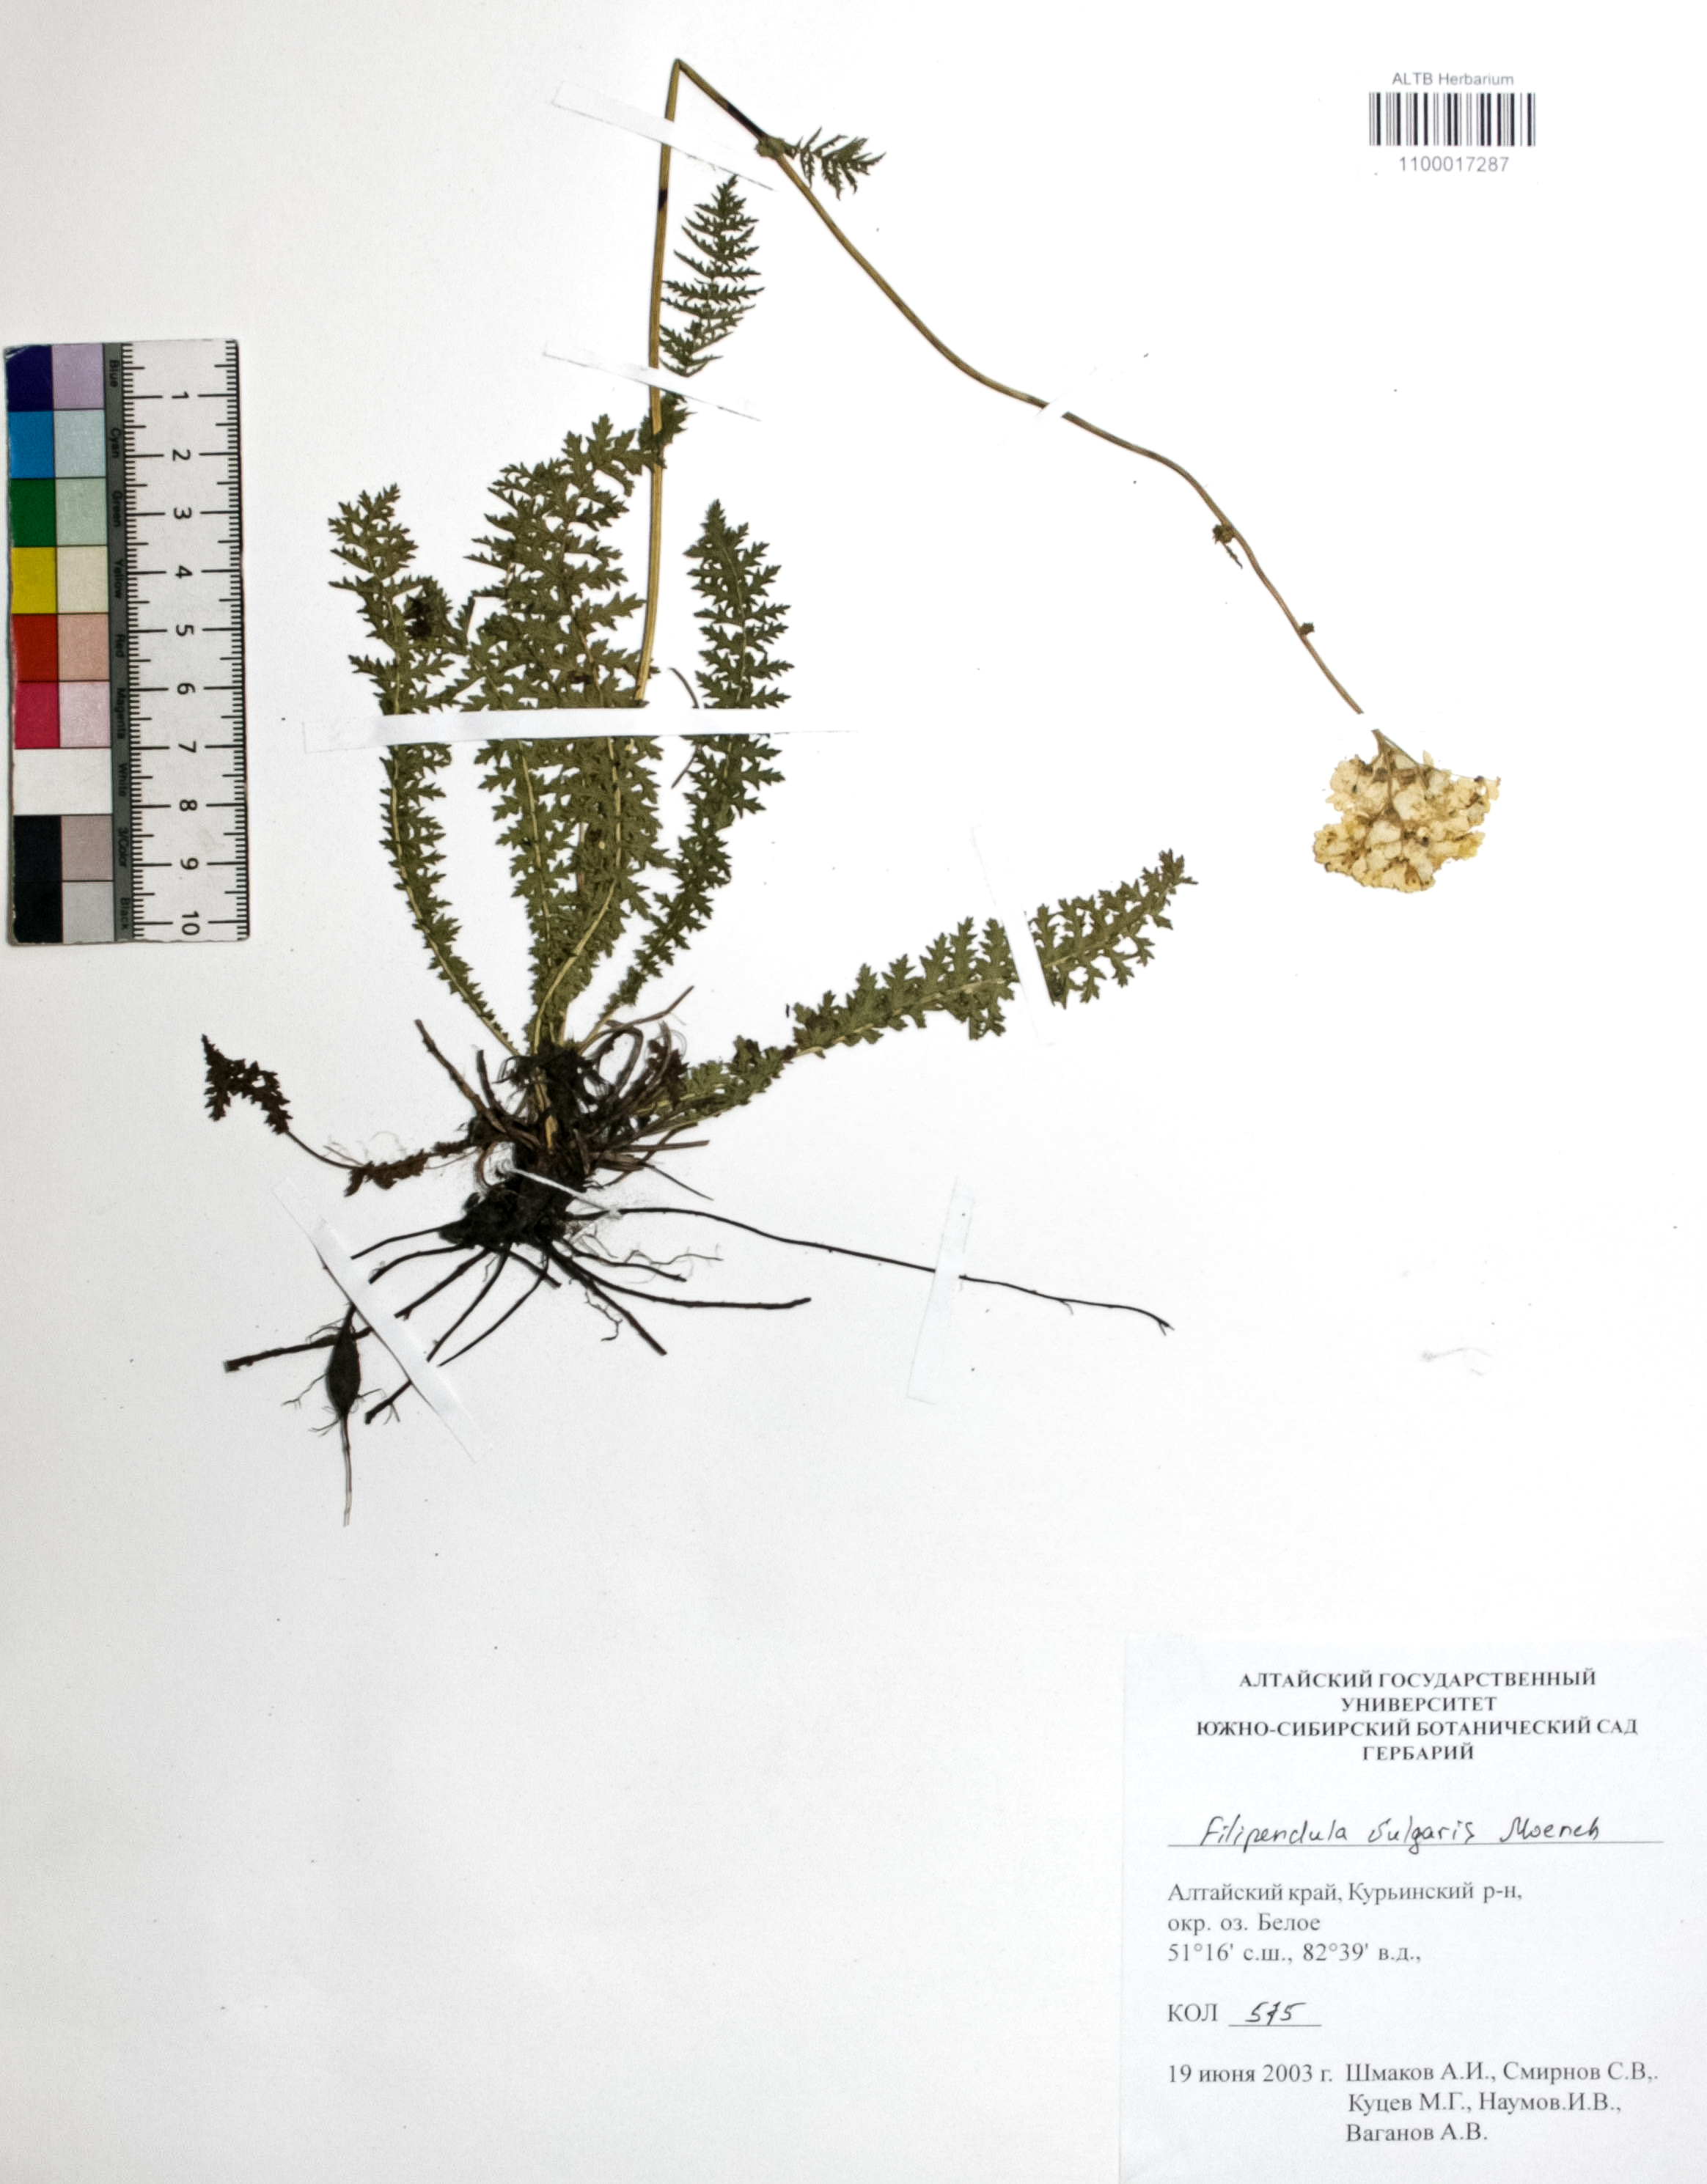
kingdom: Plantae
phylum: Tracheophyta
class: Magnoliopsida
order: Rosales
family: Rosaceae
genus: Filipendula
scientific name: Filipendula vulgaris
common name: Dropwort
